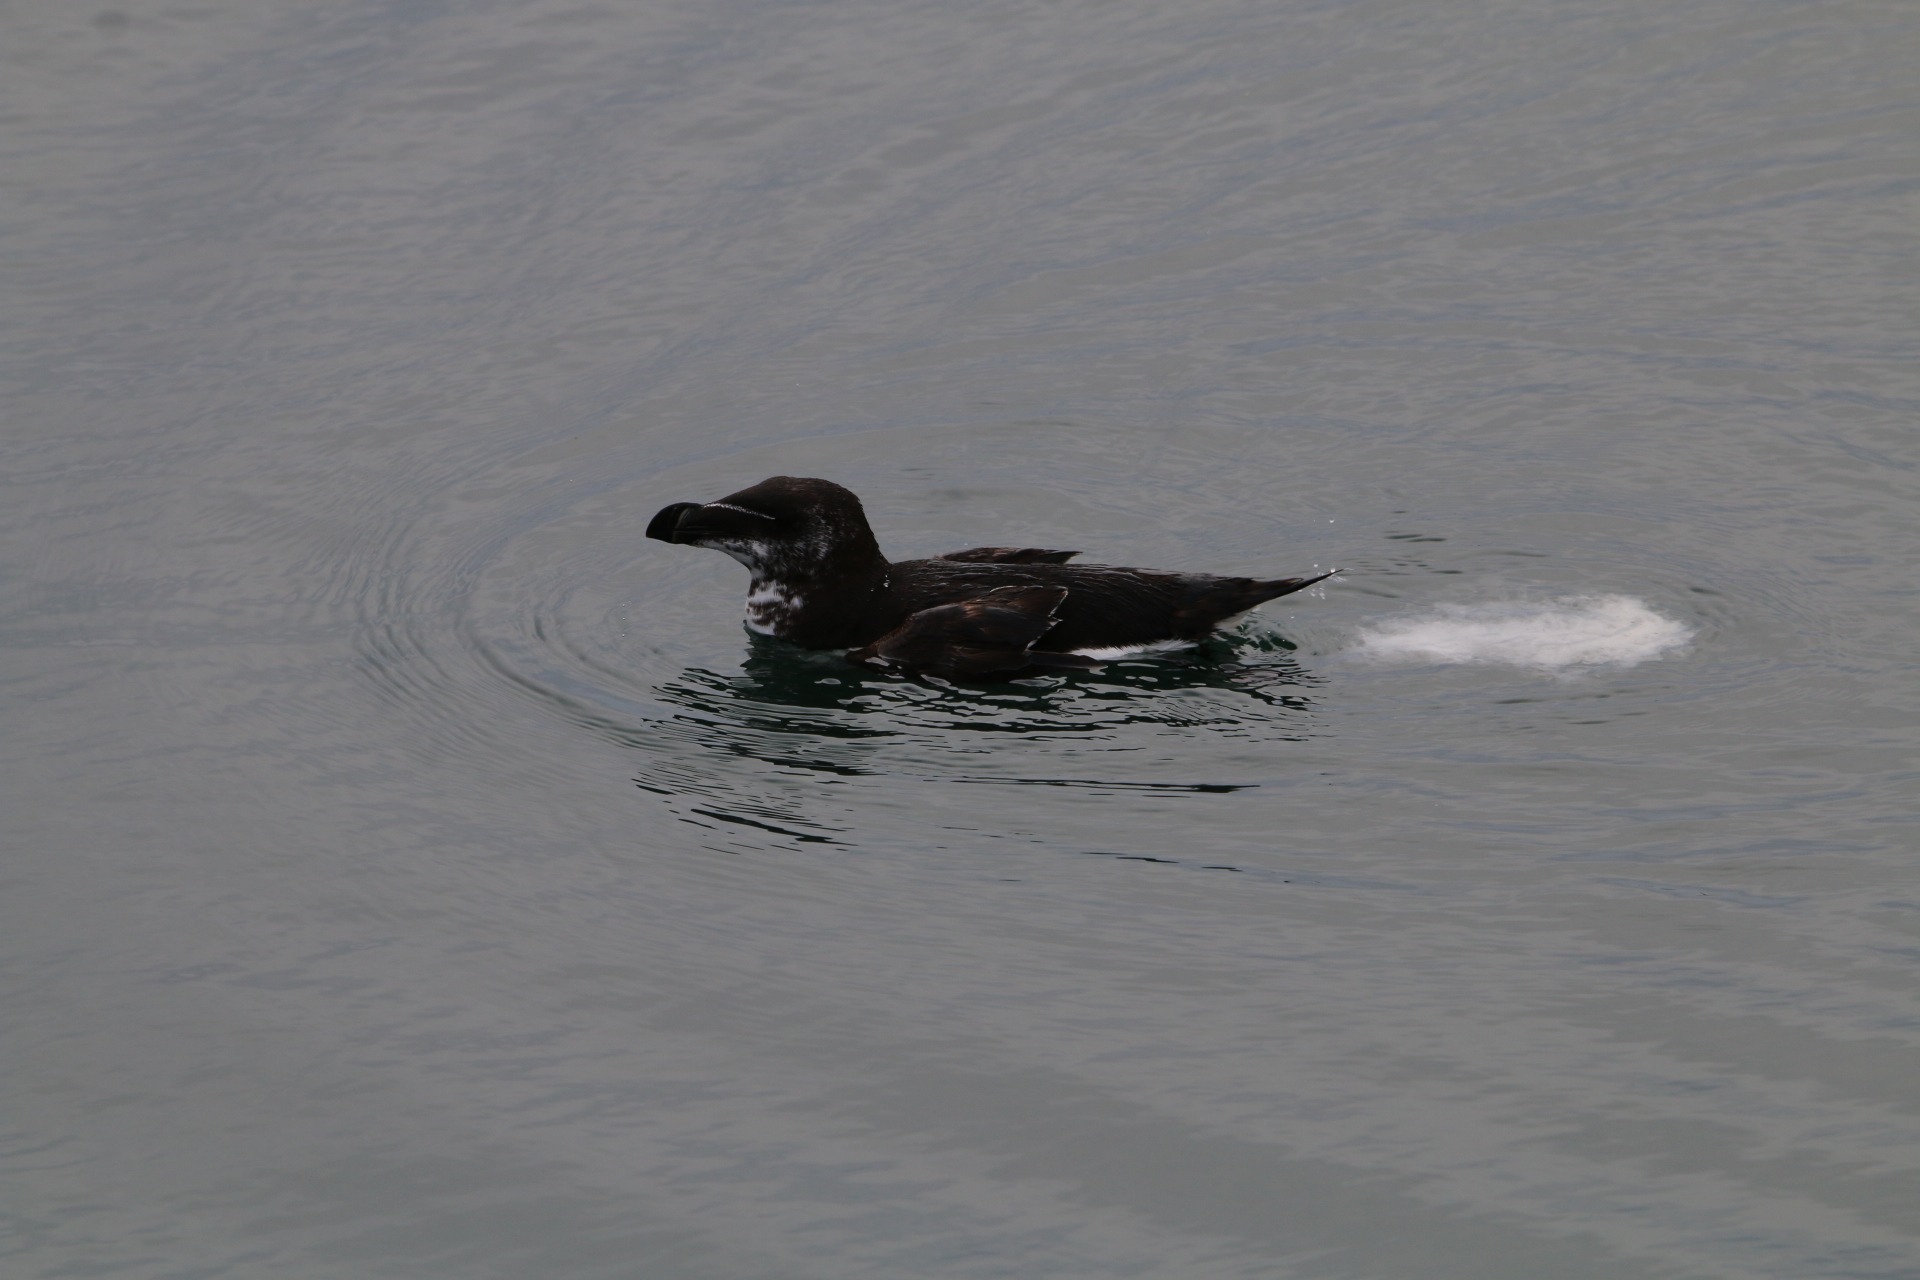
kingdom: Animalia
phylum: Chordata
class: Aves
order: Charadriiformes
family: Alcidae
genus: Alca
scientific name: Alca torda
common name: Alk
